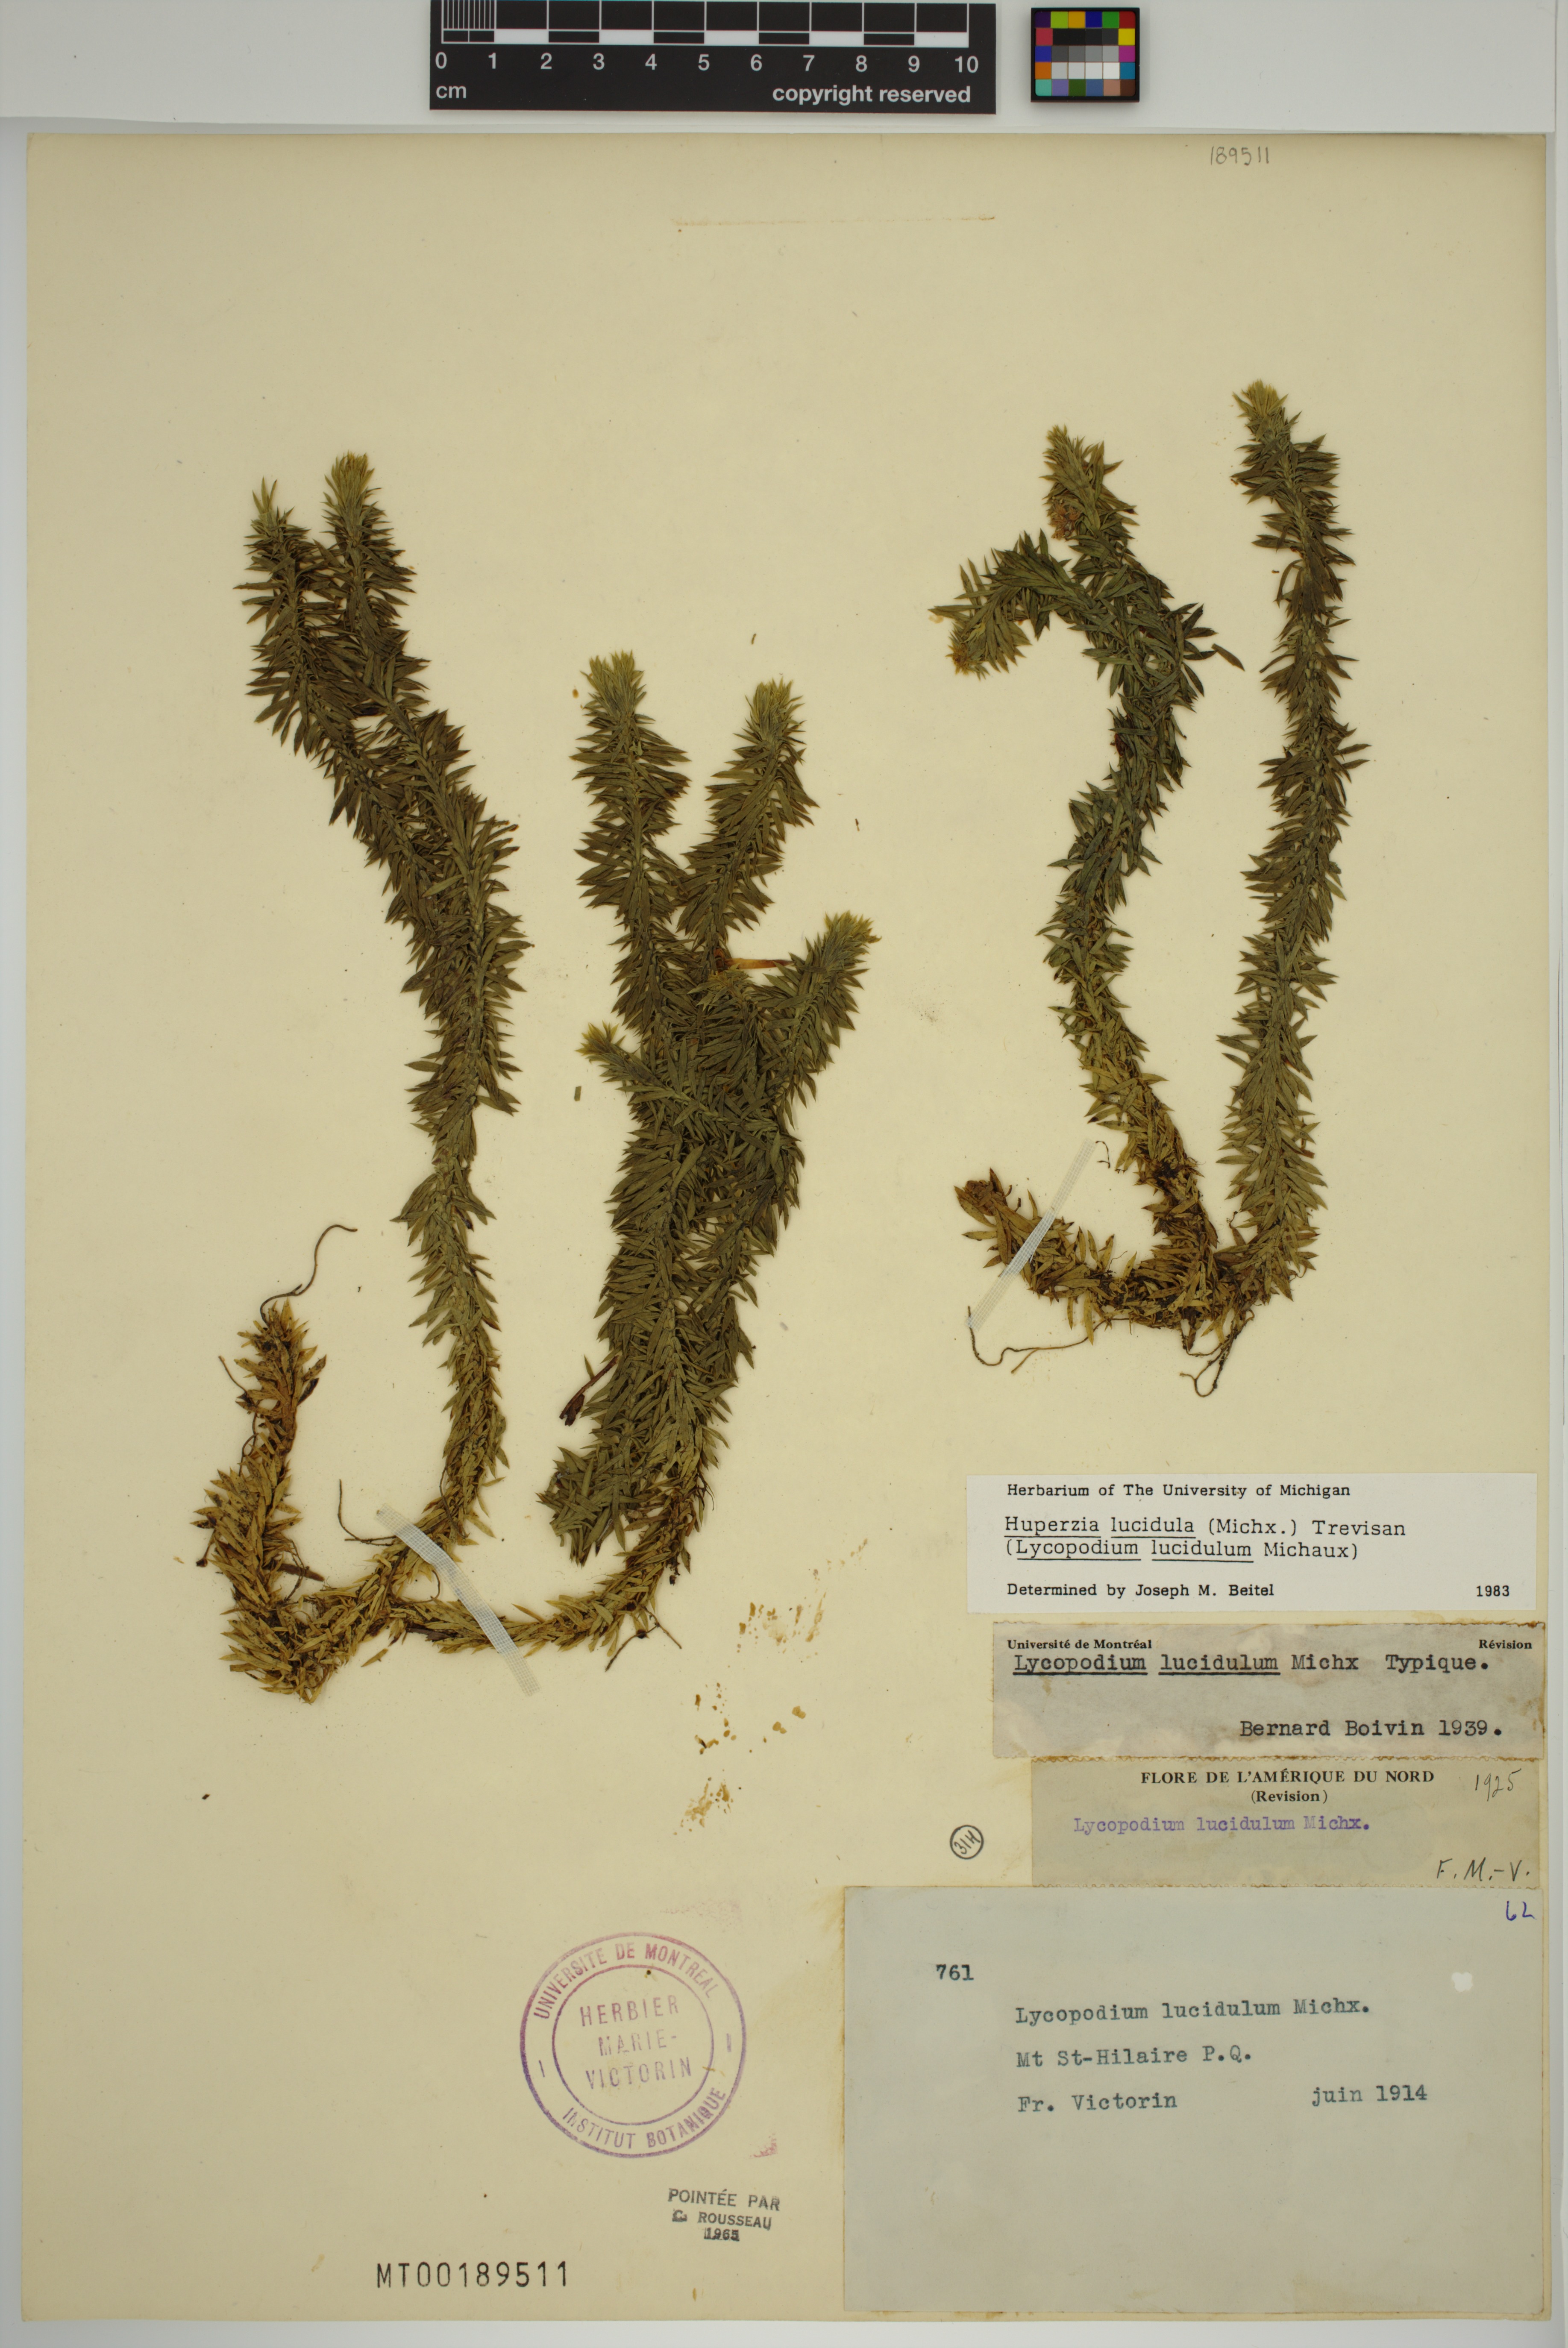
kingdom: Plantae
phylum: Tracheophyta
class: Lycopodiopsida
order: Lycopodiales
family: Lycopodiaceae
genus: Huperzia
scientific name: Huperzia lucidula
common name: Shining clubmoss
